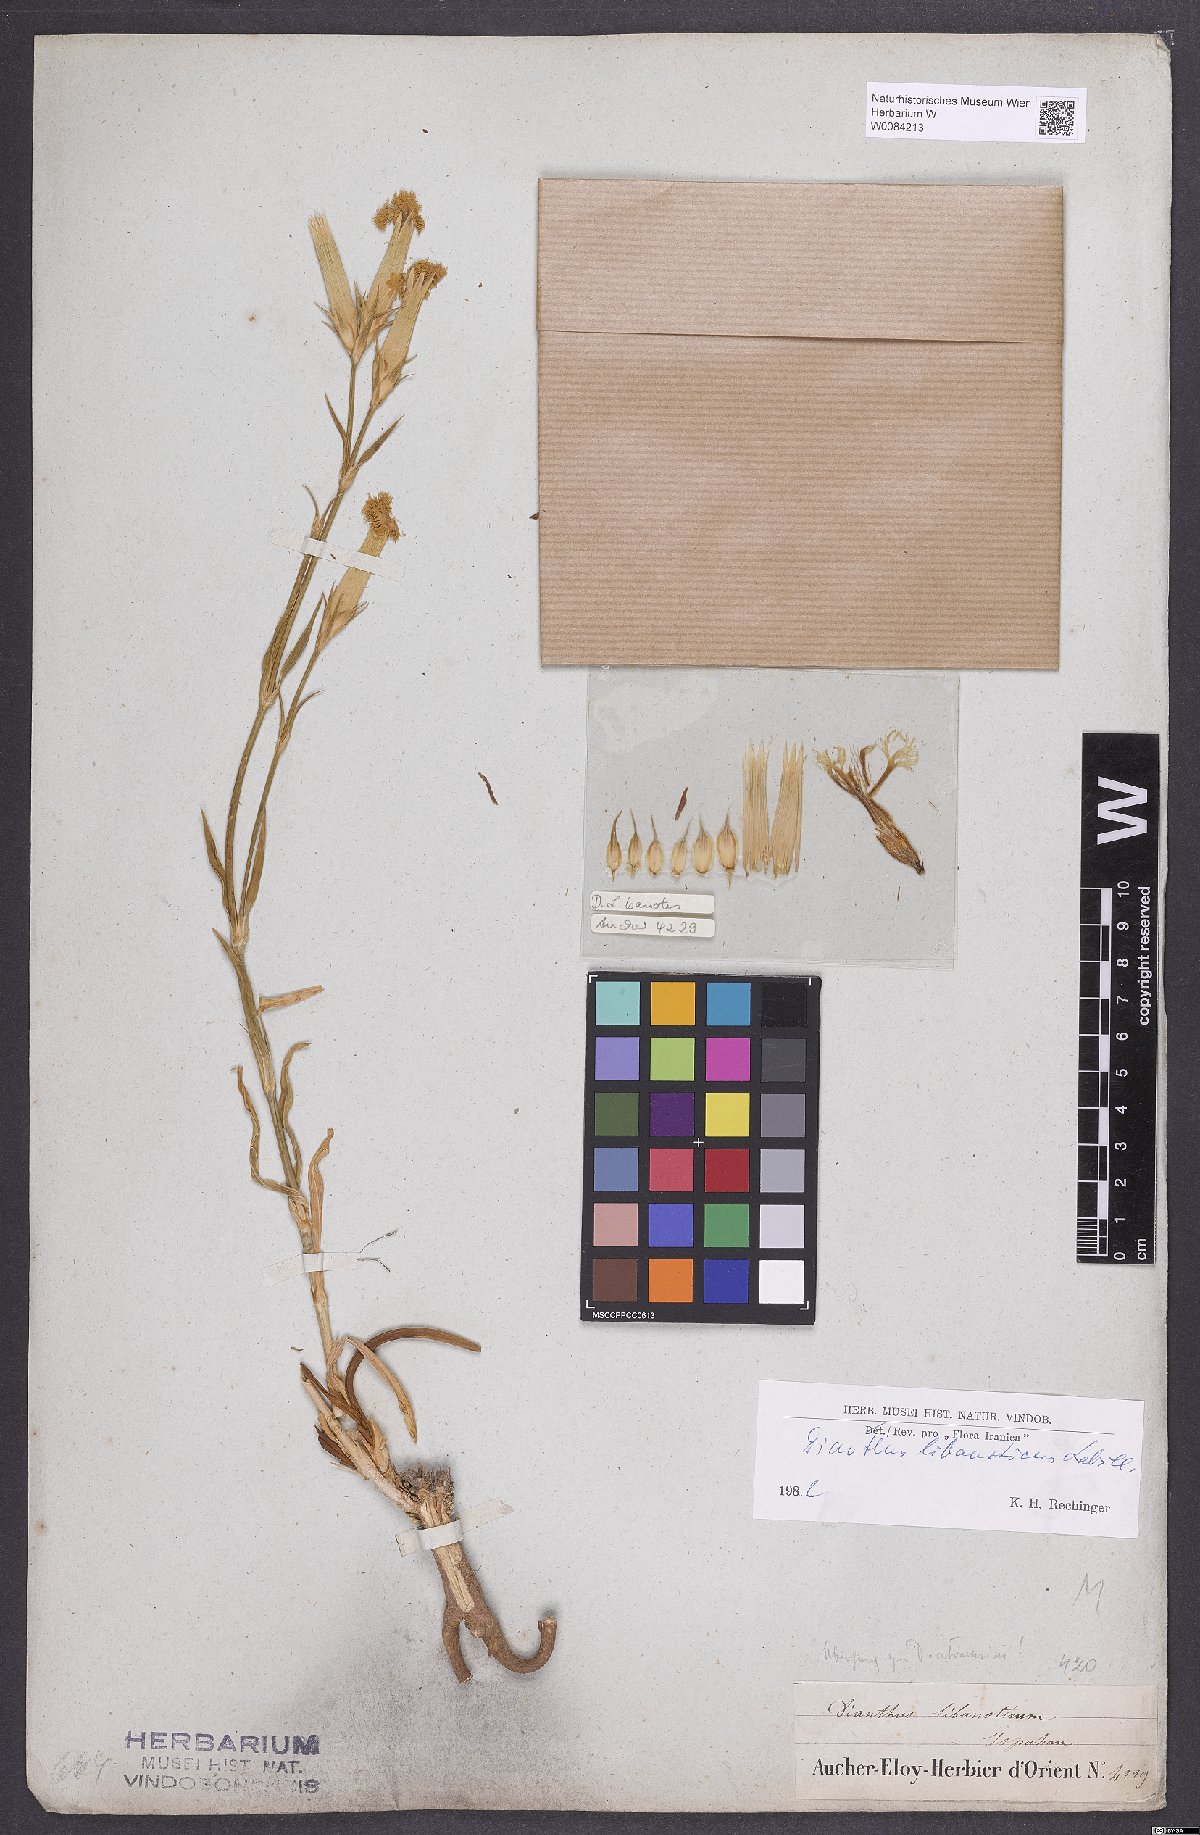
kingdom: Plantae
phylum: Tracheophyta
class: Magnoliopsida
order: Caryophyllales
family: Caryophyllaceae
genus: Dianthus
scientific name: Dianthus libanotis
